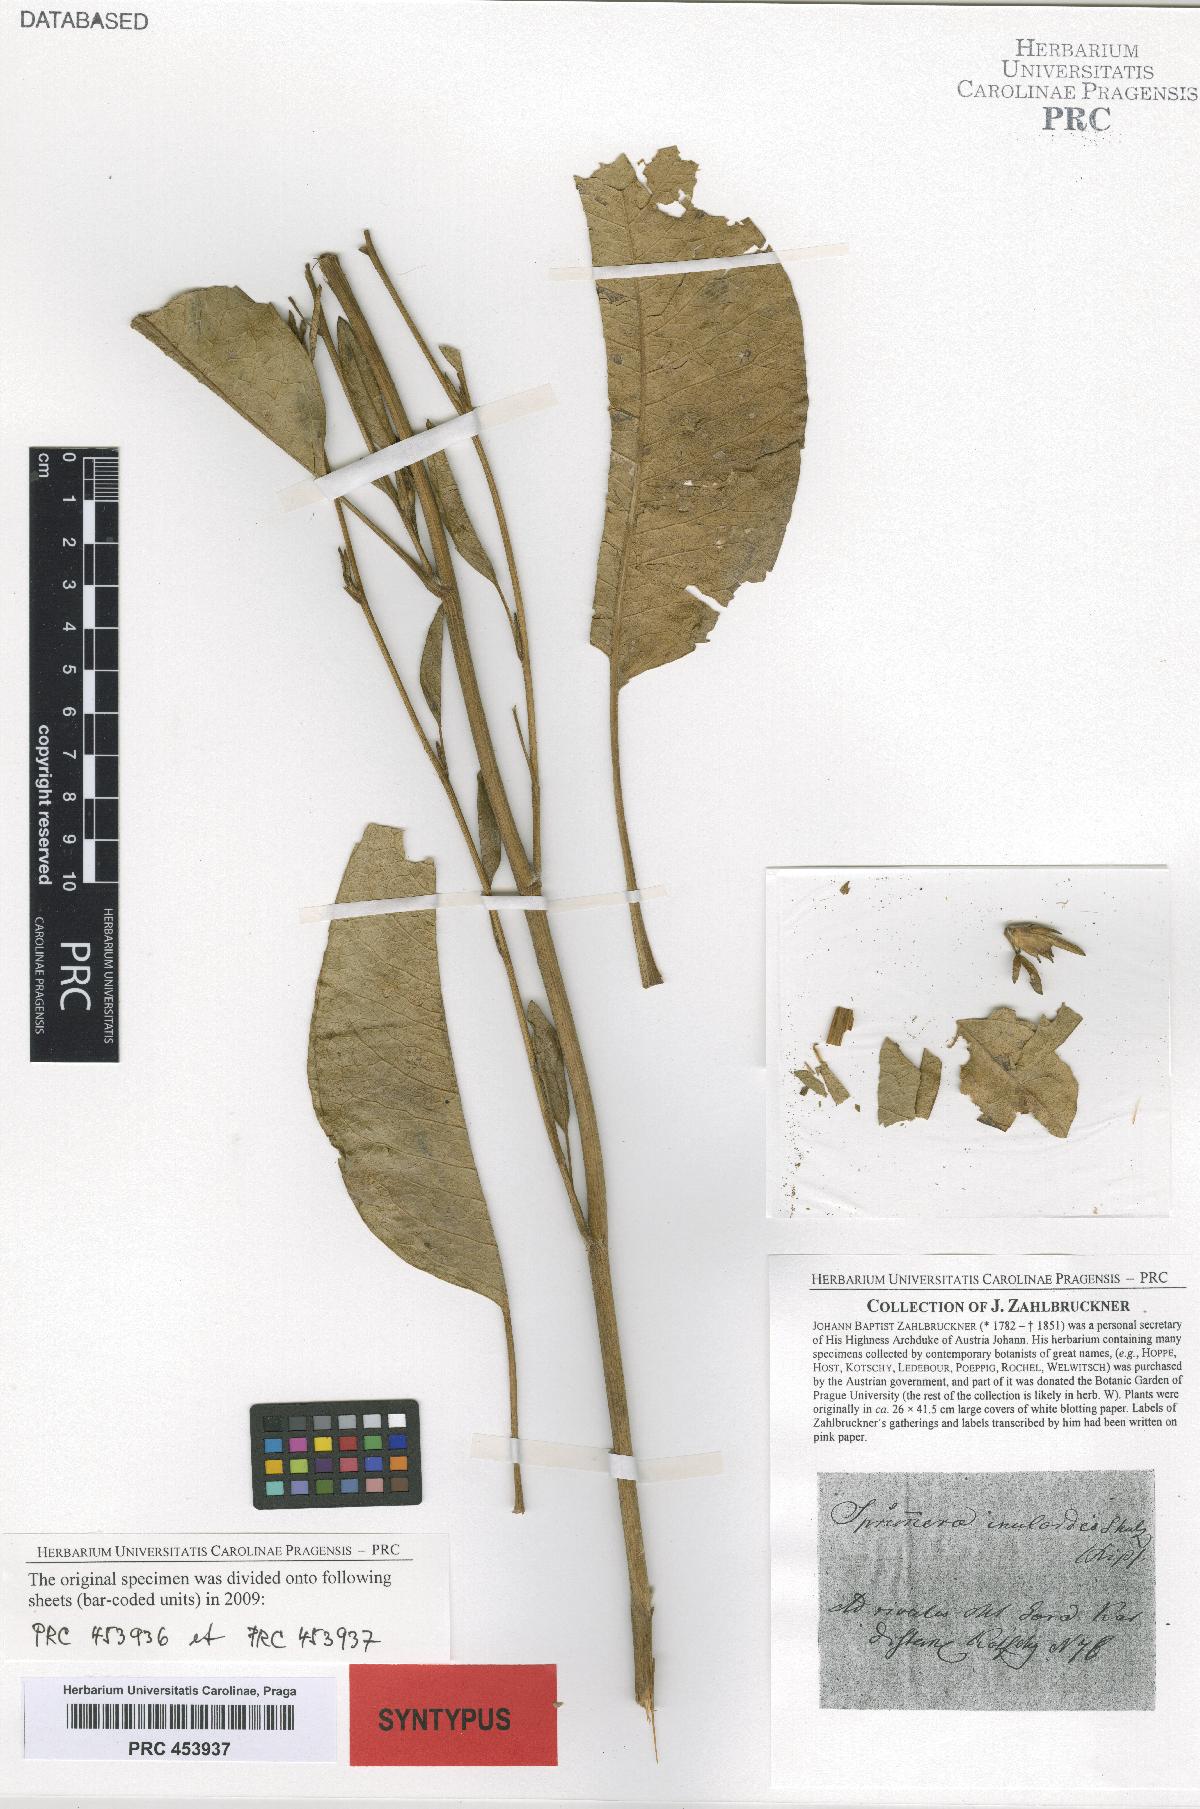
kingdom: Plantae
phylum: Tracheophyta
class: Magnoliopsida
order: Asterales
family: Asteraceae
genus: Inula
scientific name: Inula inuloides
